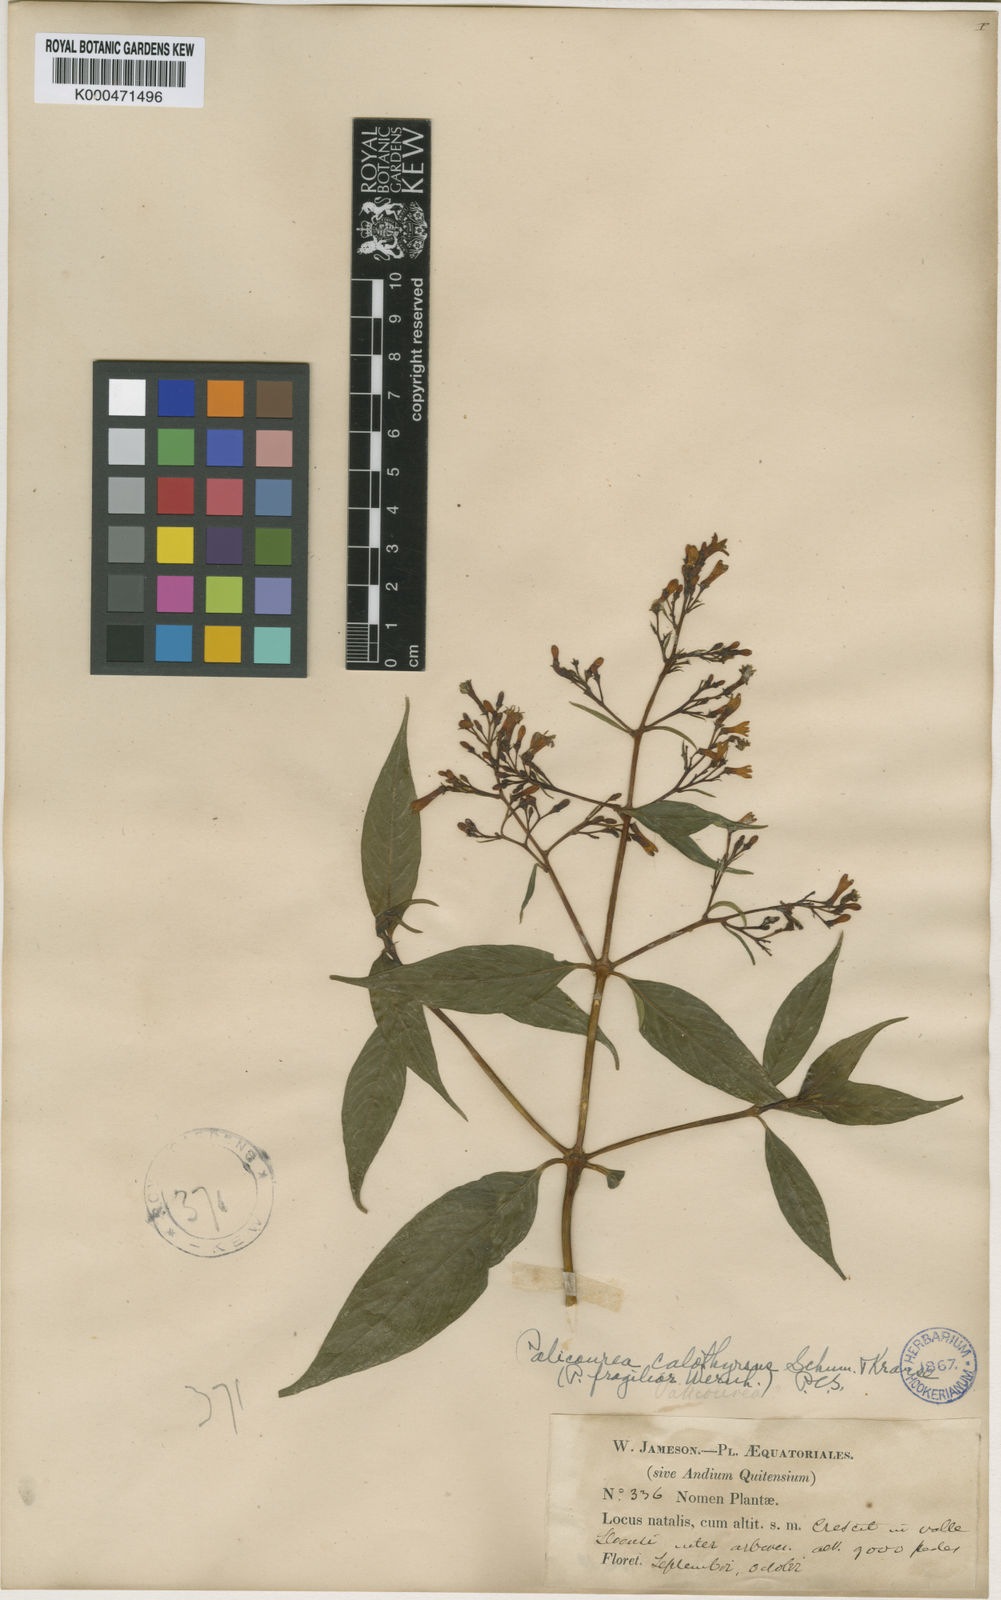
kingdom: Plantae
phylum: Tracheophyta
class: Magnoliopsida
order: Gentianales
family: Rubiaceae
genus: Palicourea
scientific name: Palicourea calothyrsus
